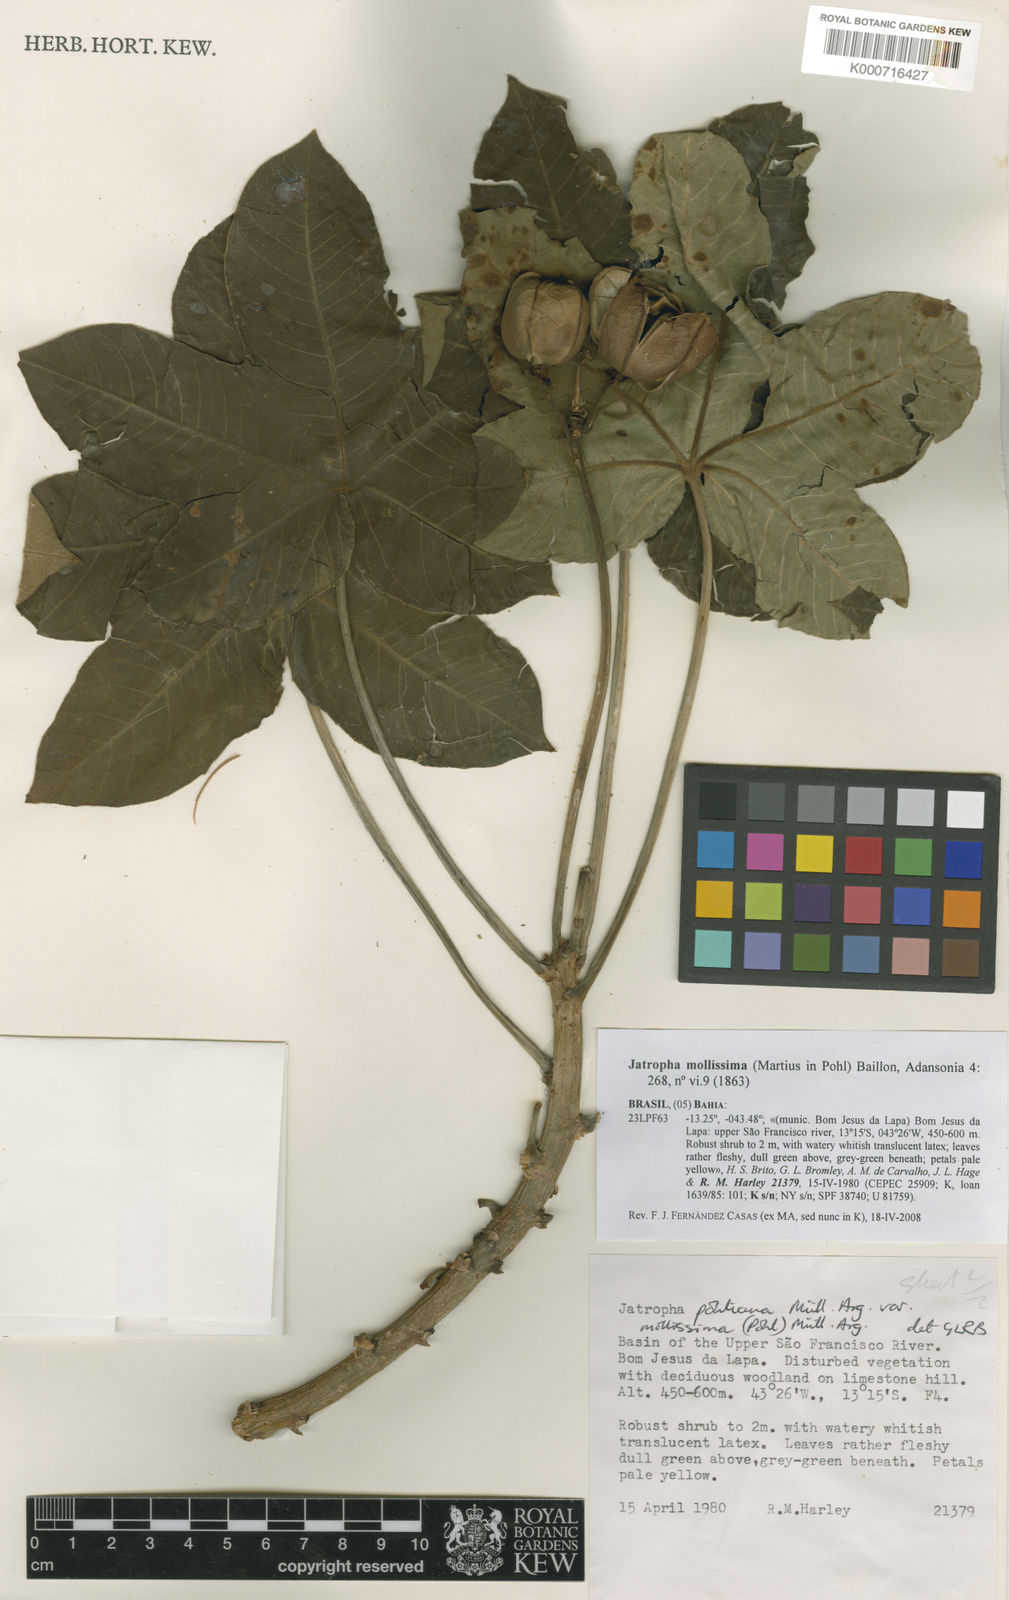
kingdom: Plantae
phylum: Tracheophyta
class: Magnoliopsida
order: Malpighiales
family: Euphorbiaceae
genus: Jatropha
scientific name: Jatropha mollissima
